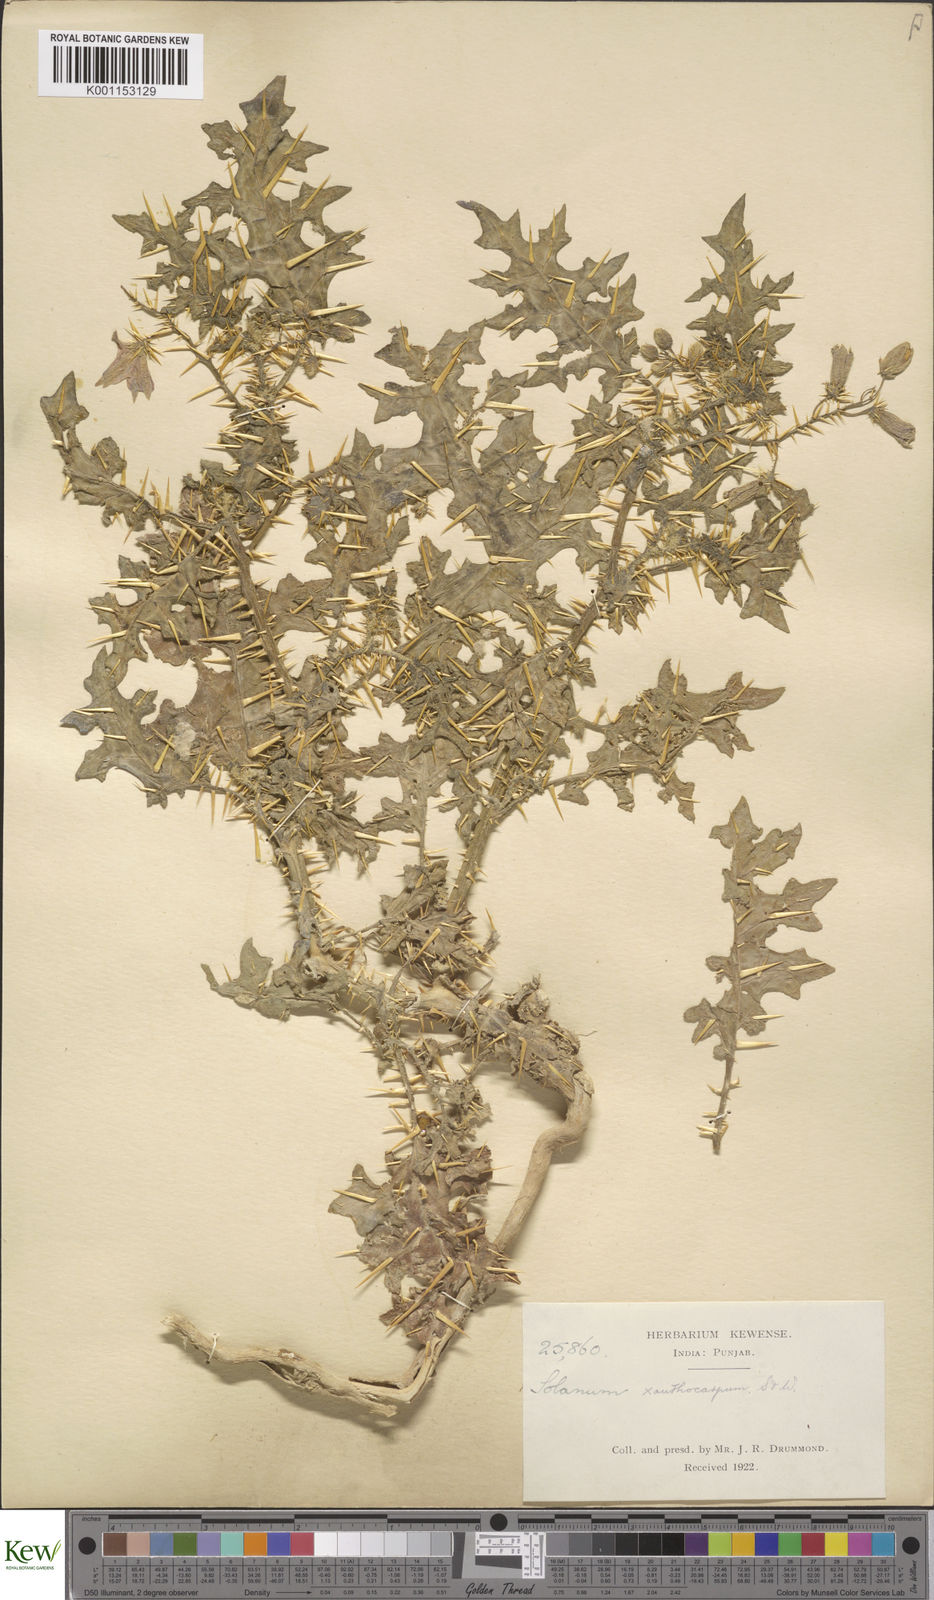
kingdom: Plantae
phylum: Tracheophyta
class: Magnoliopsida
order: Solanales
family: Solanaceae
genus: Solanum
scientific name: Solanum virginianum
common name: Surattense nightshade
